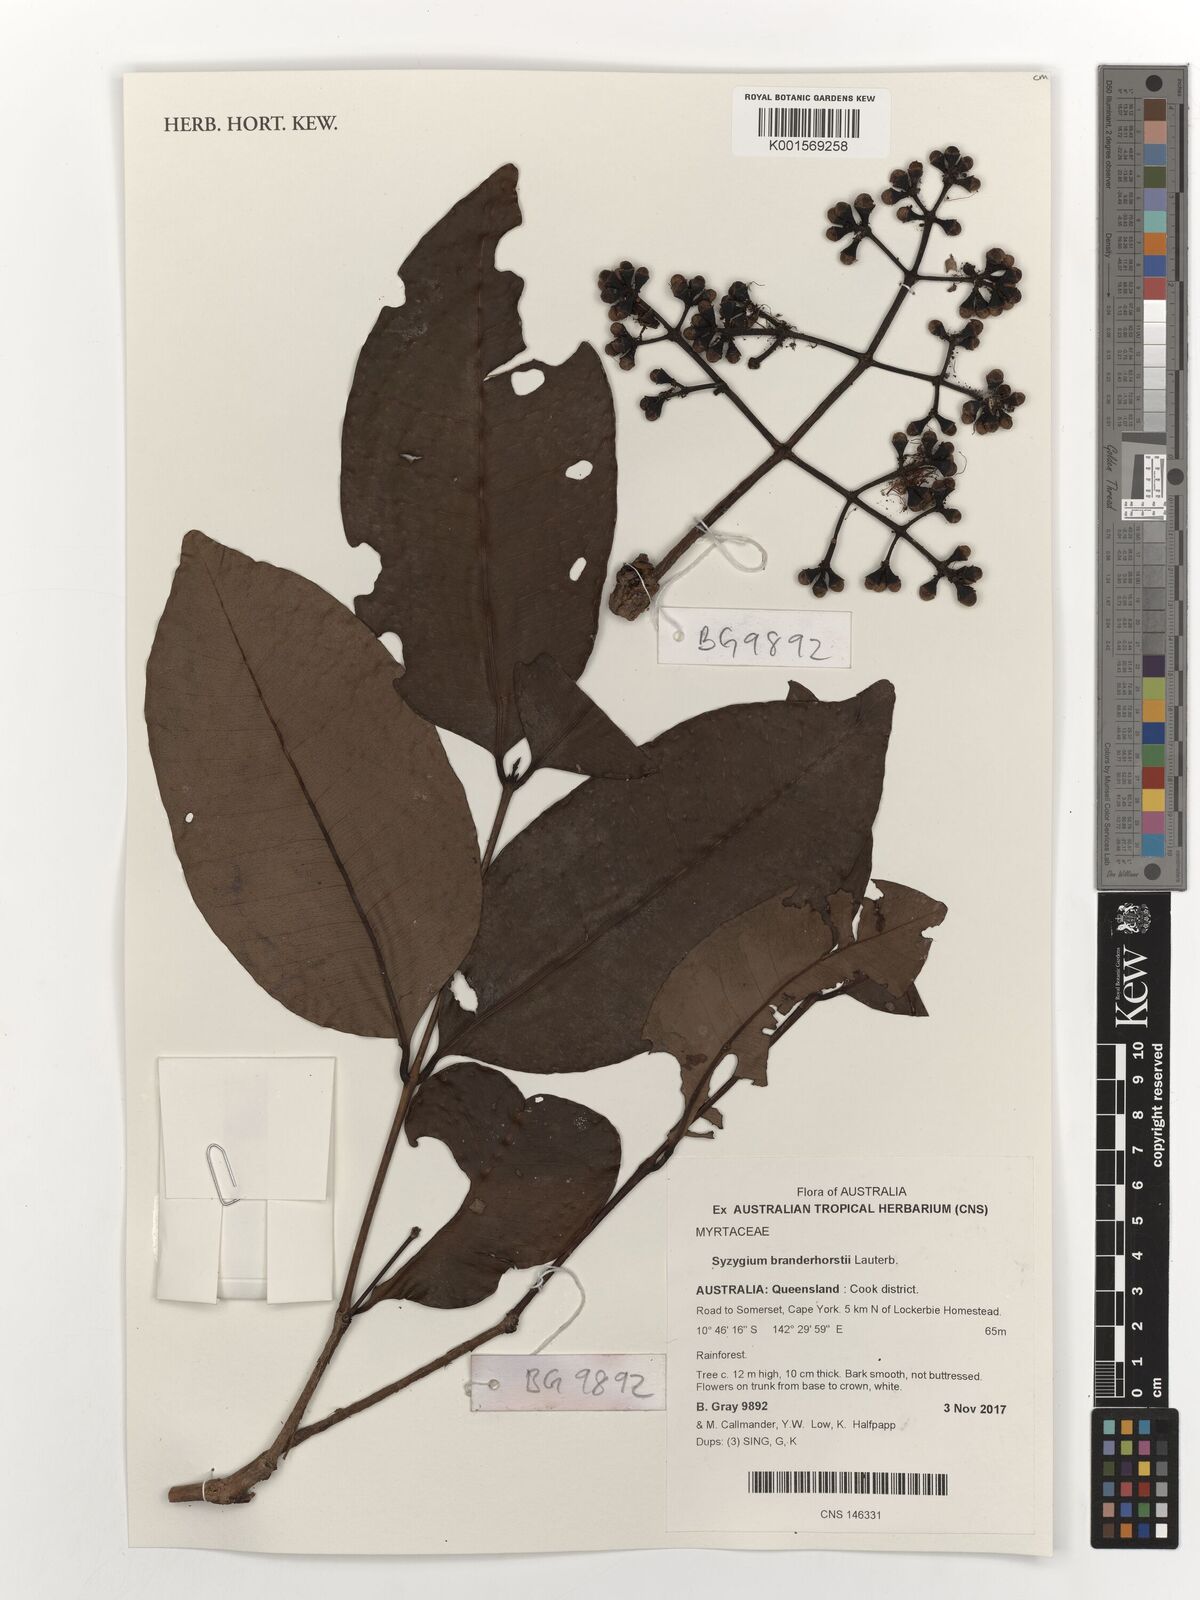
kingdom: Plantae
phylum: Tracheophyta
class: Magnoliopsida
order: Myrtales
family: Myrtaceae
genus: Syzygium
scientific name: Syzygium branderhorstii
